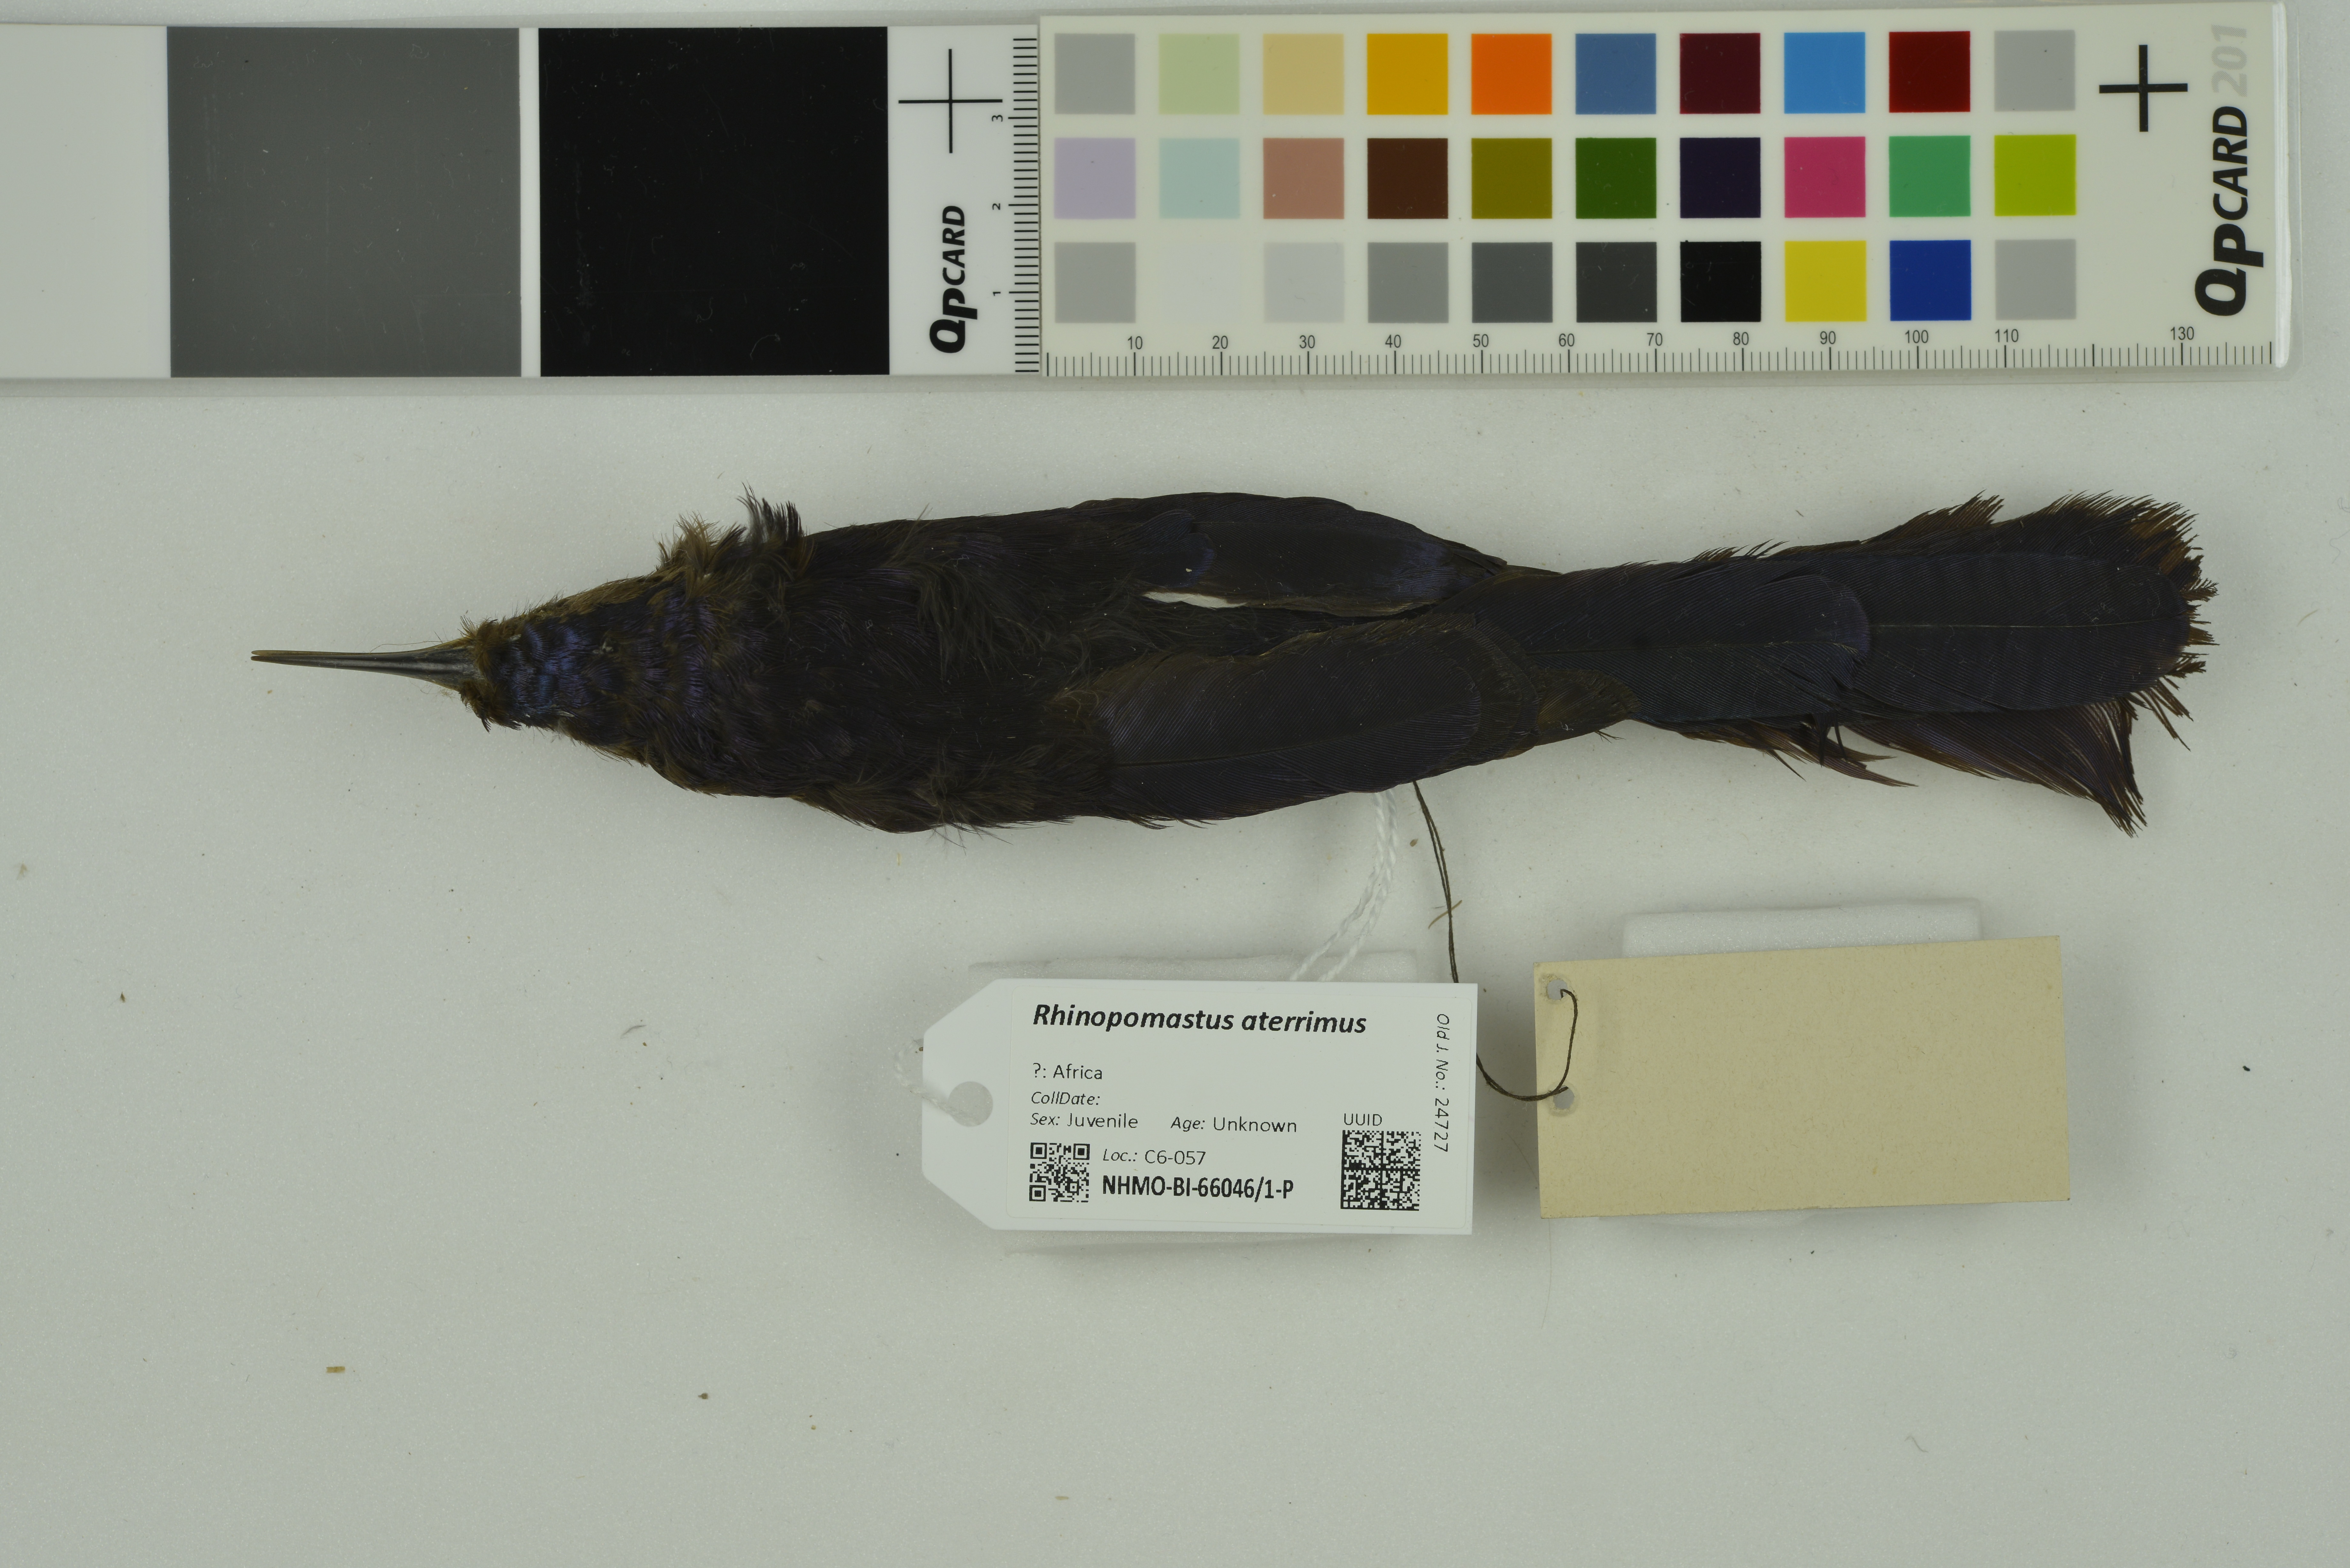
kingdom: Animalia
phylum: Chordata
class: Aves
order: Bucerotiformes
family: Phoeniculidae
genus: Rhinopomastus
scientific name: Rhinopomastus aterrimus
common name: Black scimitarbill
